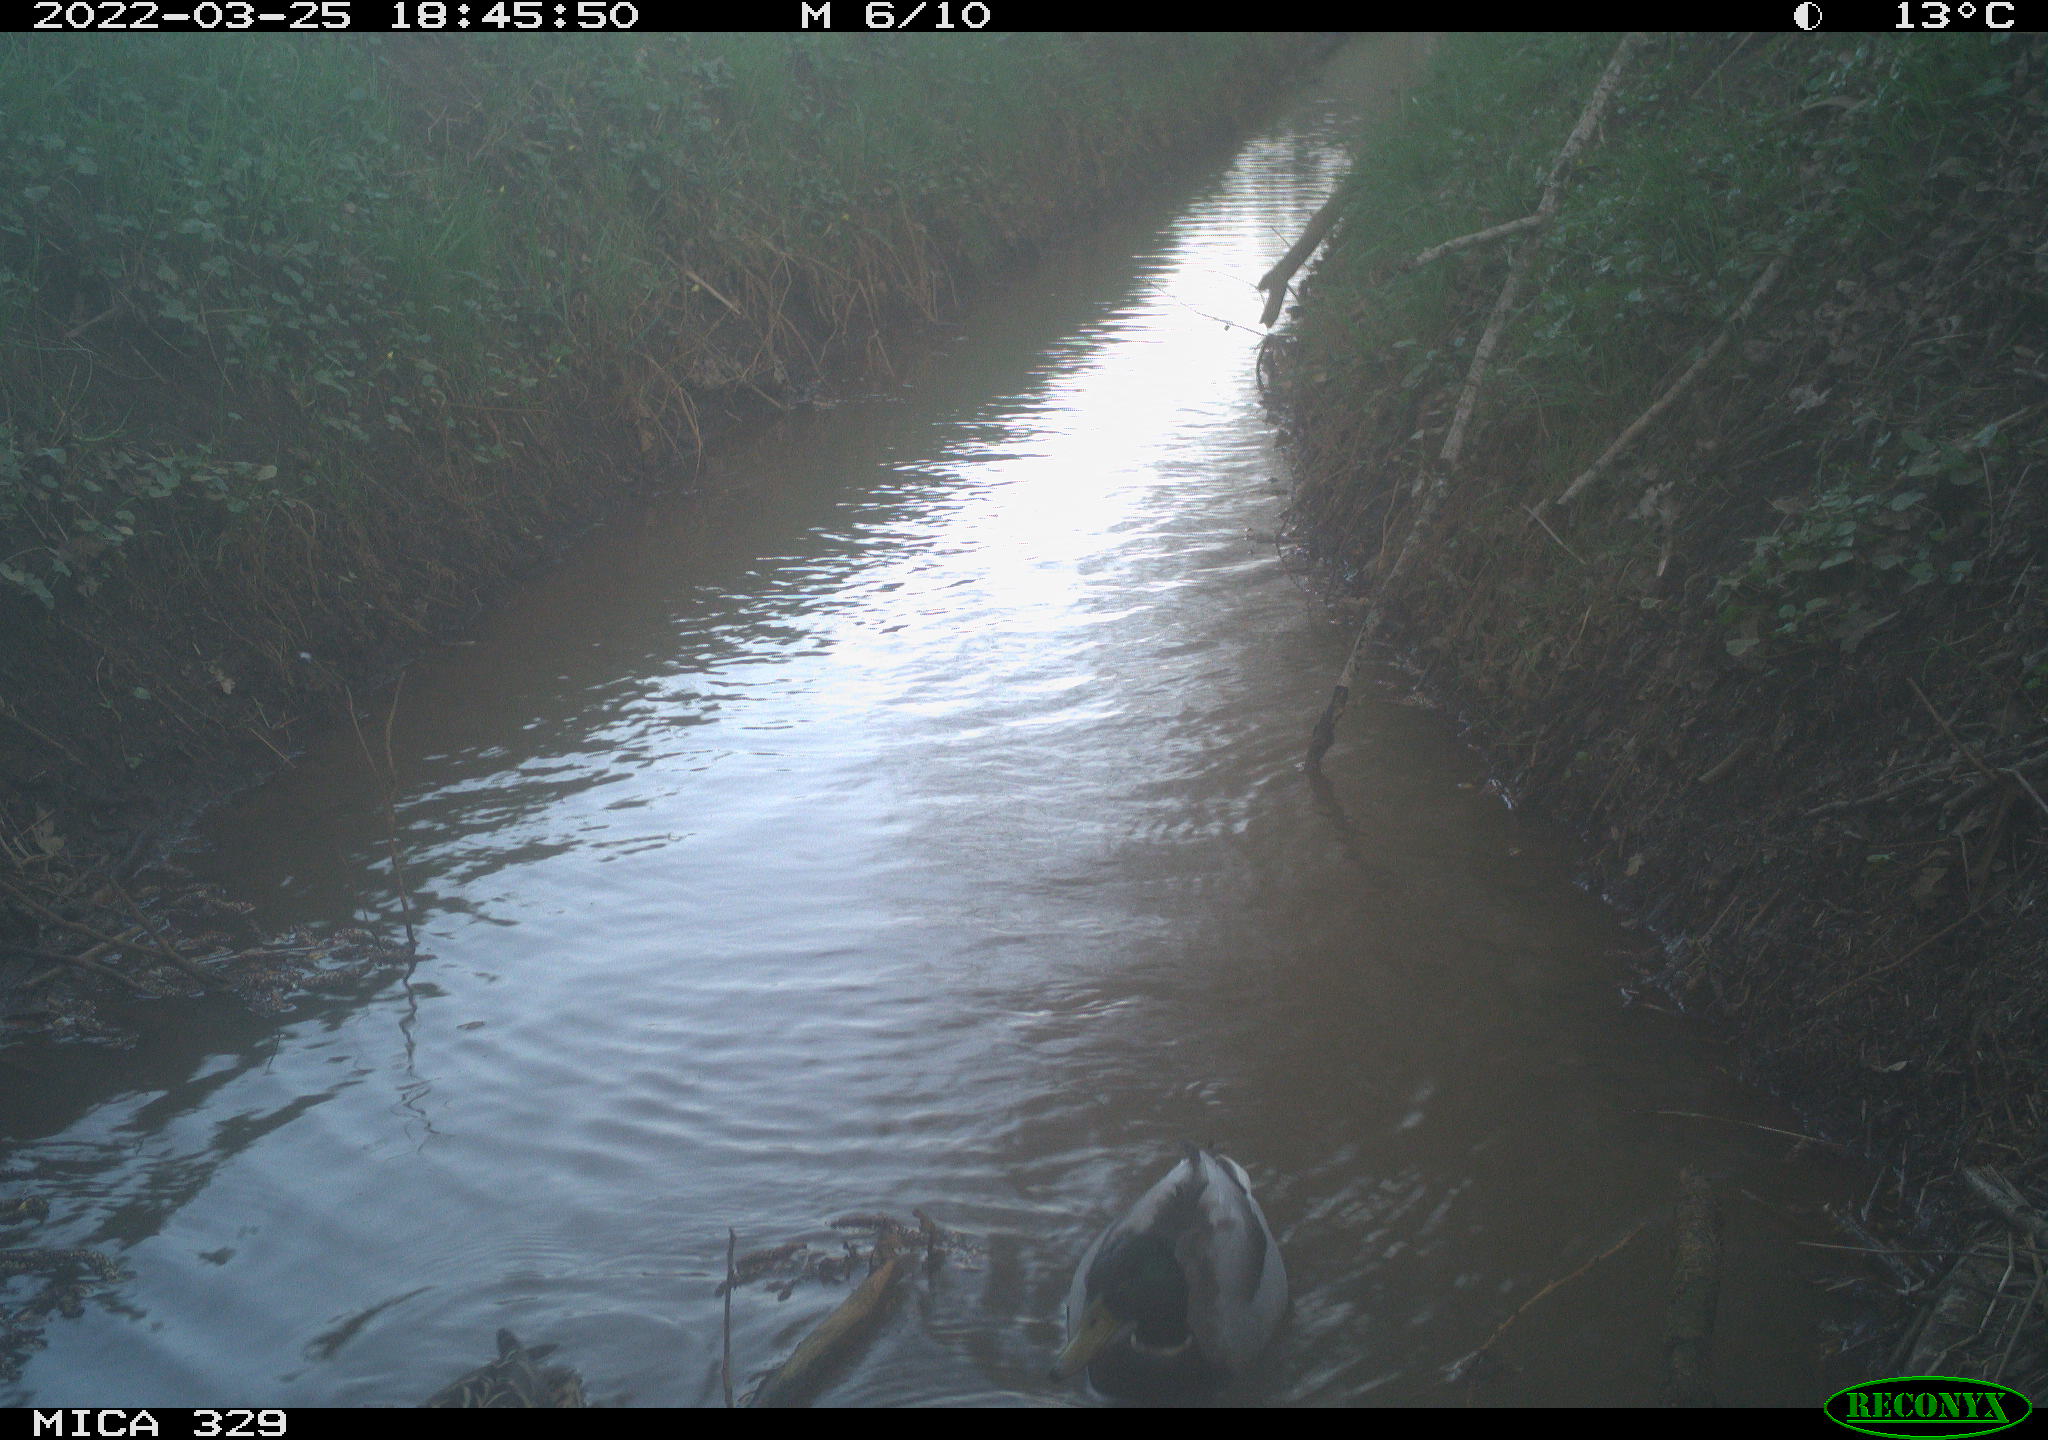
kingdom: Animalia
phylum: Chordata
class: Aves
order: Anseriformes
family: Anatidae
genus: Anas
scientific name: Anas platyrhynchos
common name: Mallard
